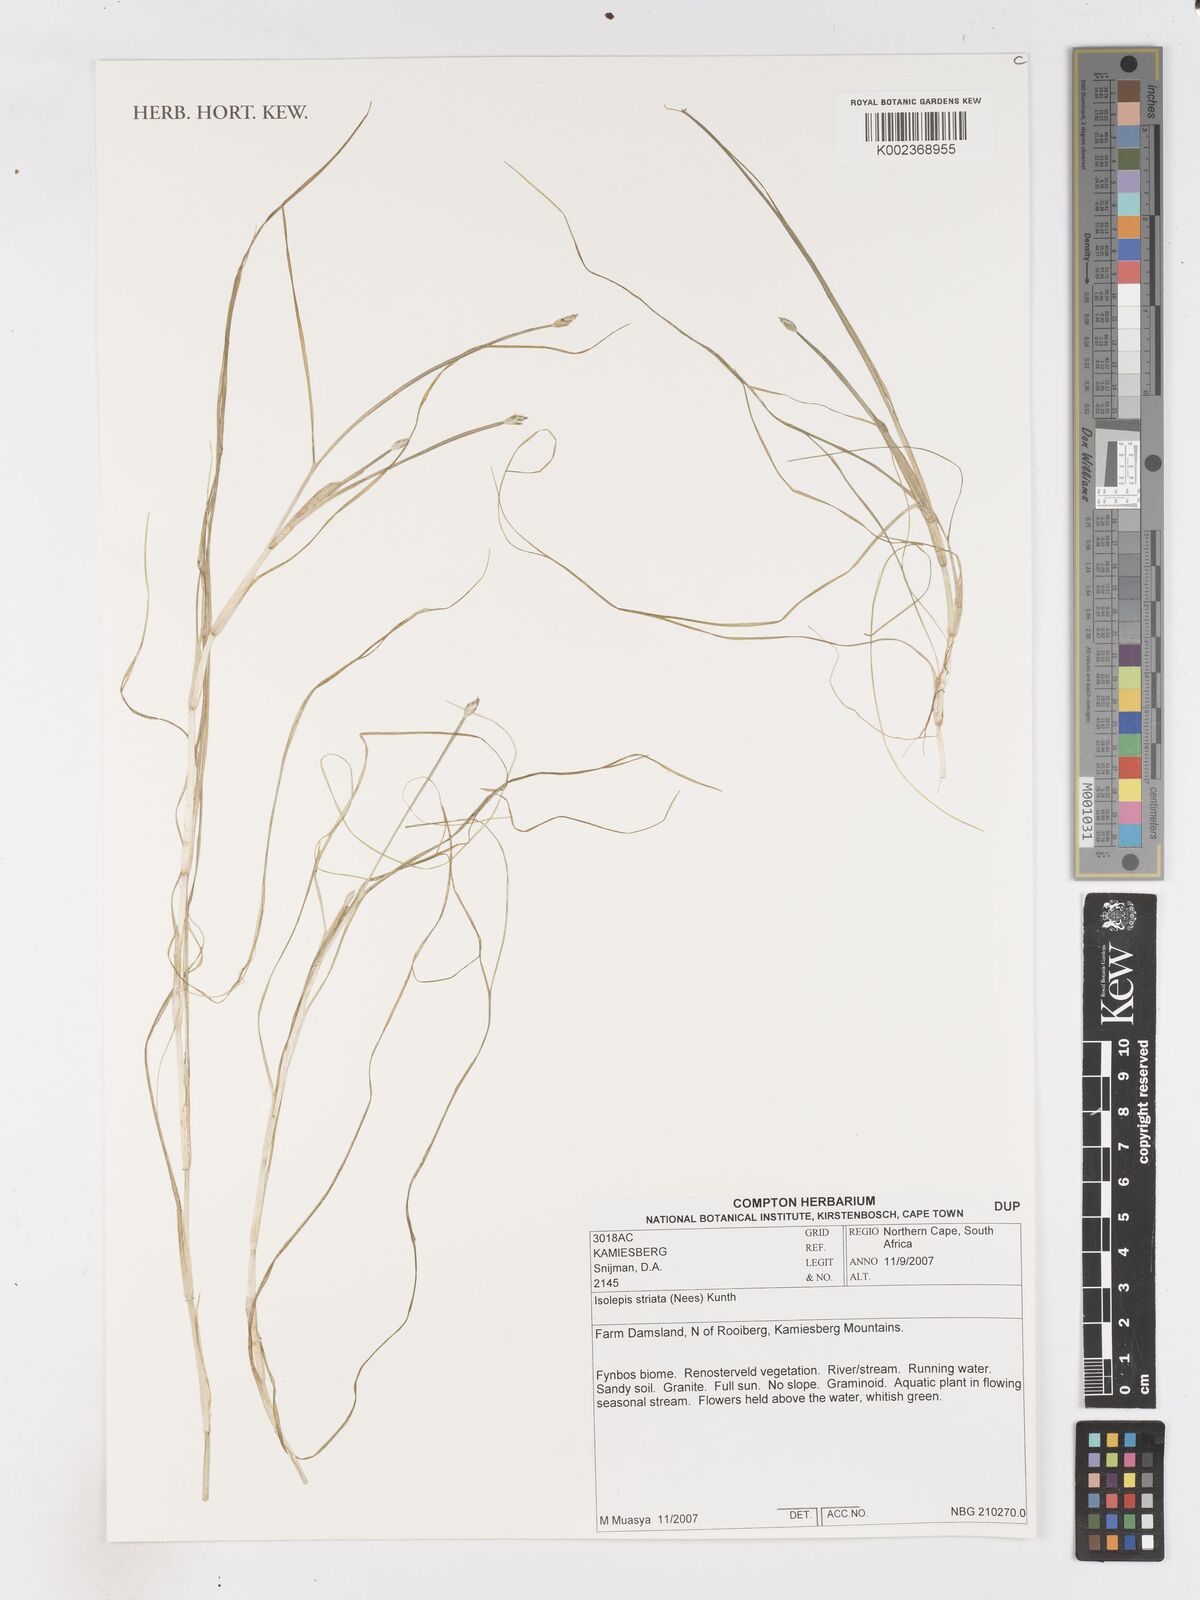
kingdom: Plantae
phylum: Tracheophyta
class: Liliopsida
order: Poales
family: Cyperaceae
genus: Isolepis
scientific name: Isolepis striata
